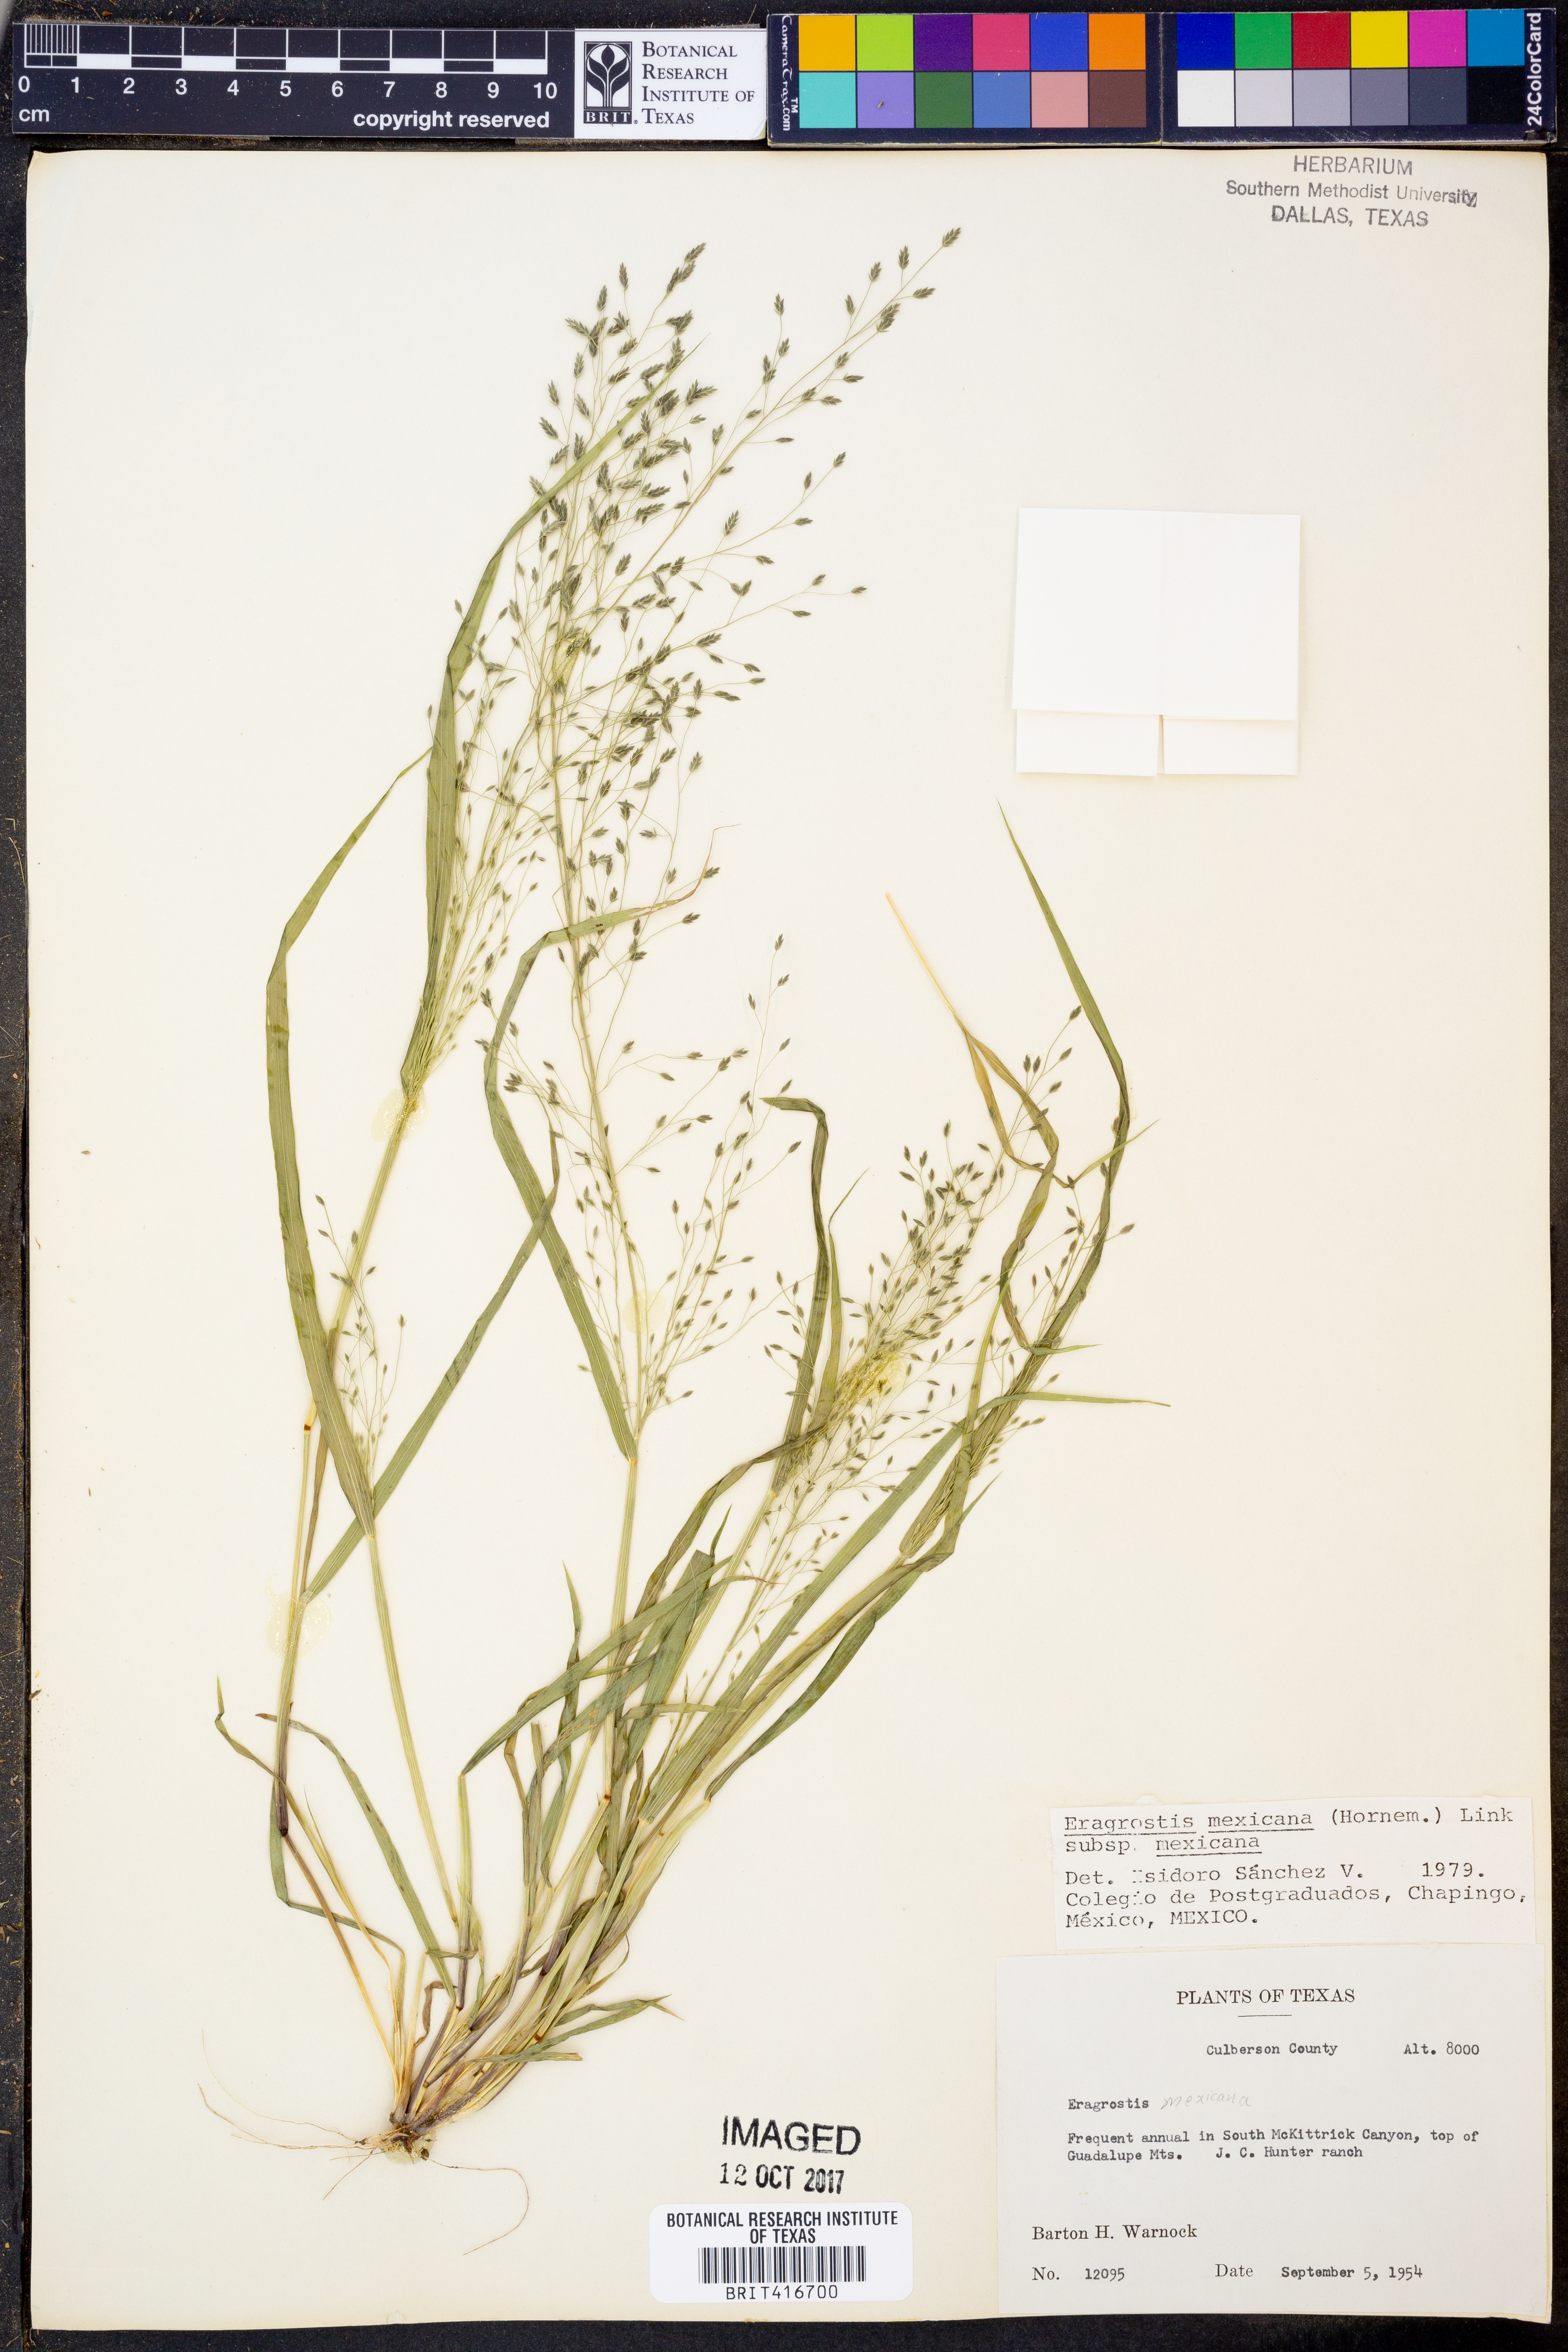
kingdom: Plantae
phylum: Tracheophyta
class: Liliopsida
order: Poales
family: Poaceae
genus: Eragrostis
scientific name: Eragrostis mexicana
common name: Mexican love grass
